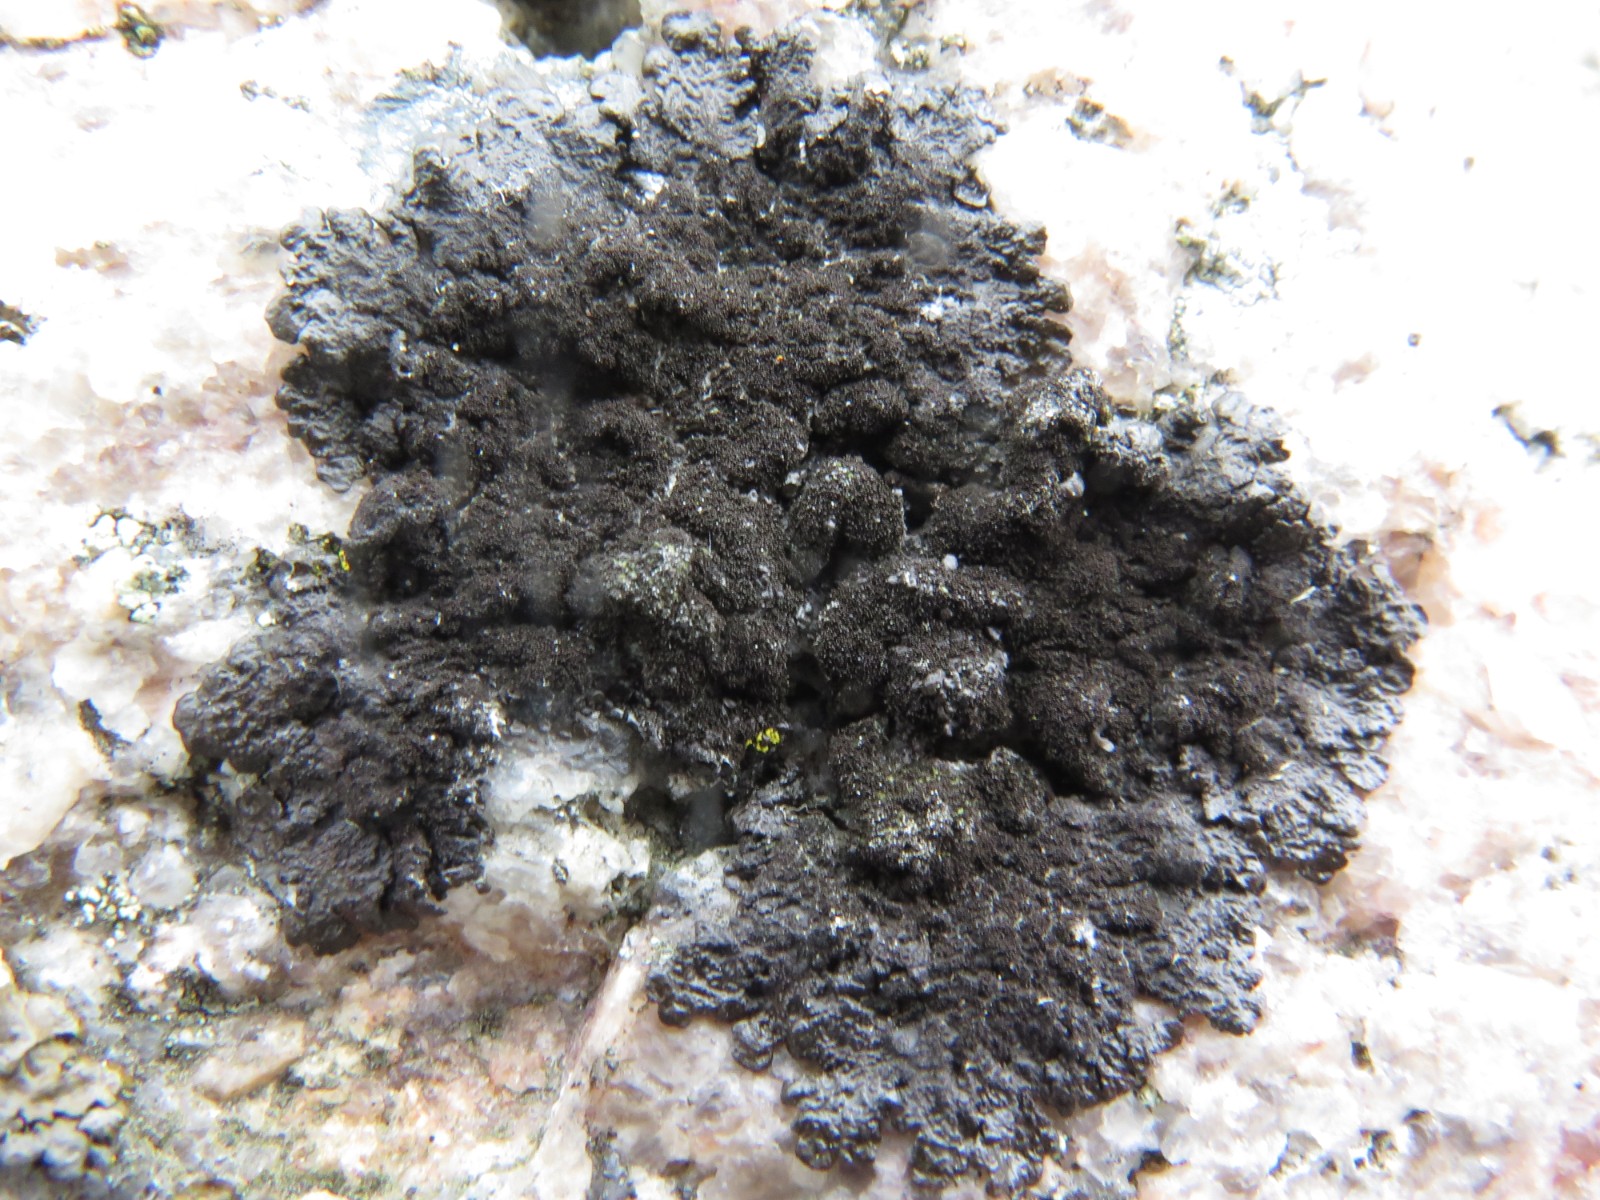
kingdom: Fungi
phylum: Ascomycota
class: Lecanoromycetes
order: Lecanorales
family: Parmeliaceae
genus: Melanelixia
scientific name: Melanelixia fuliginosa
